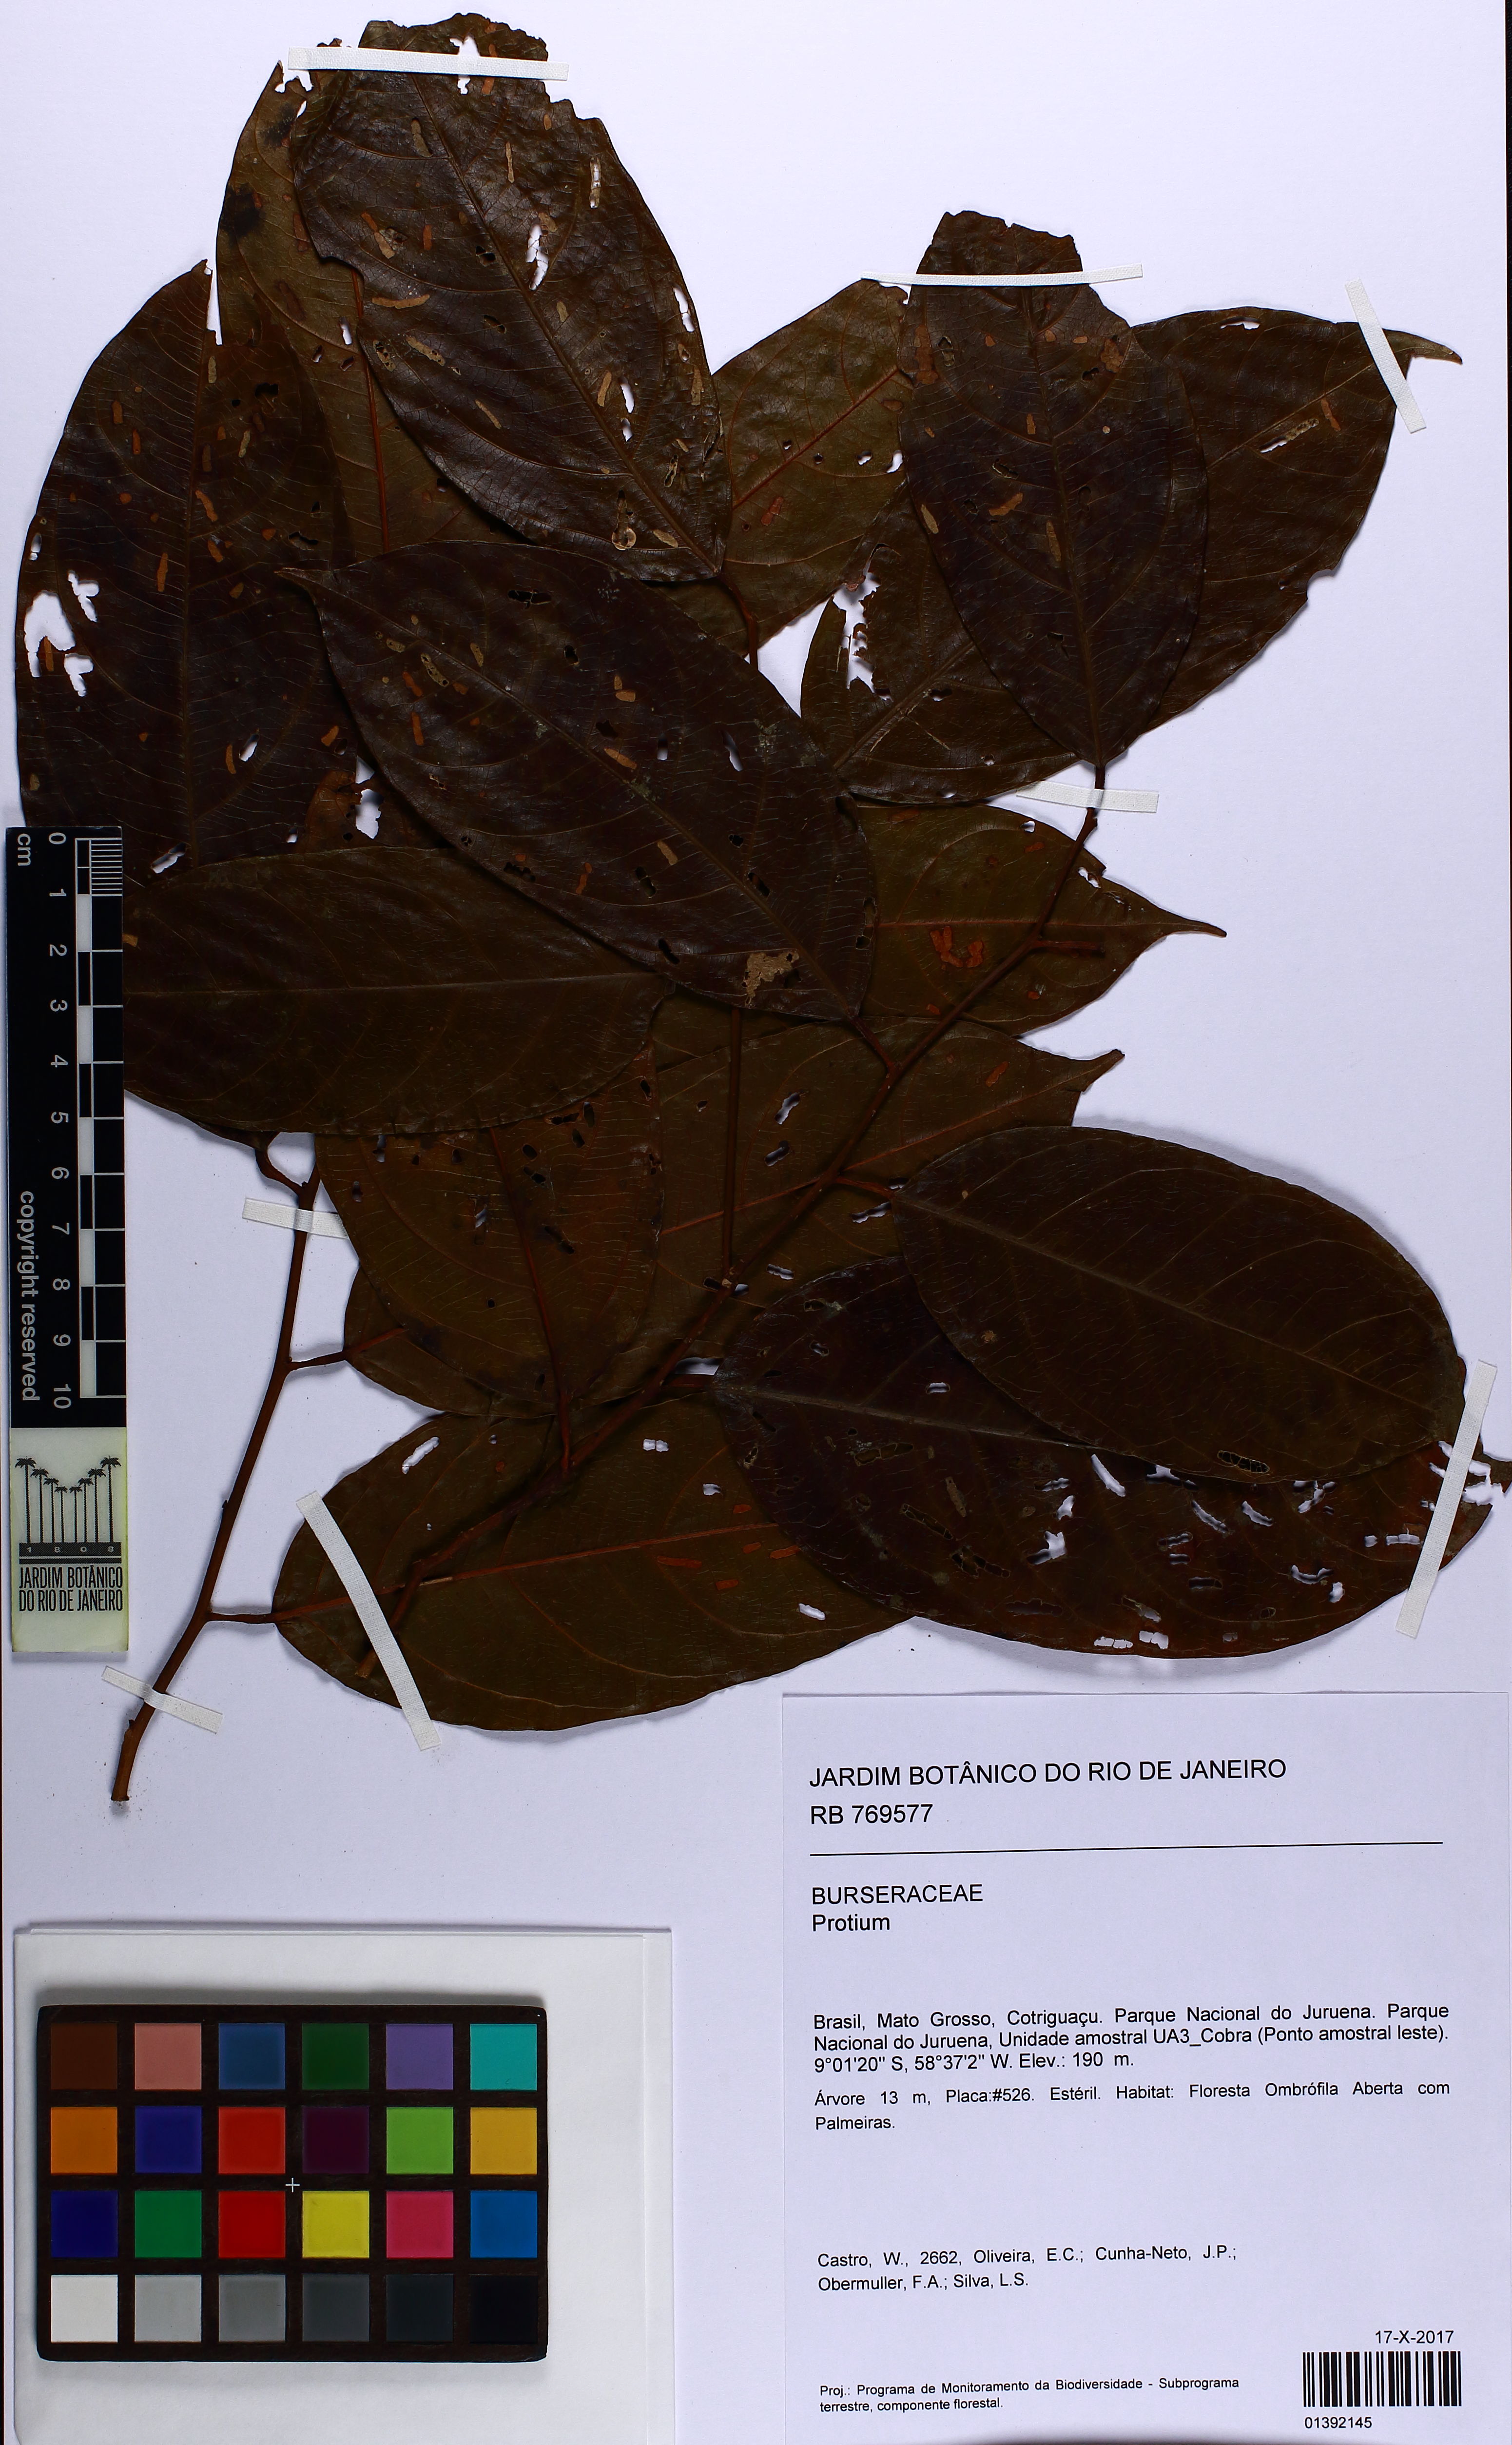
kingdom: Plantae
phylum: Tracheophyta
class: Magnoliopsida
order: Fabales
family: Fabaceae
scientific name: Fabaceae
